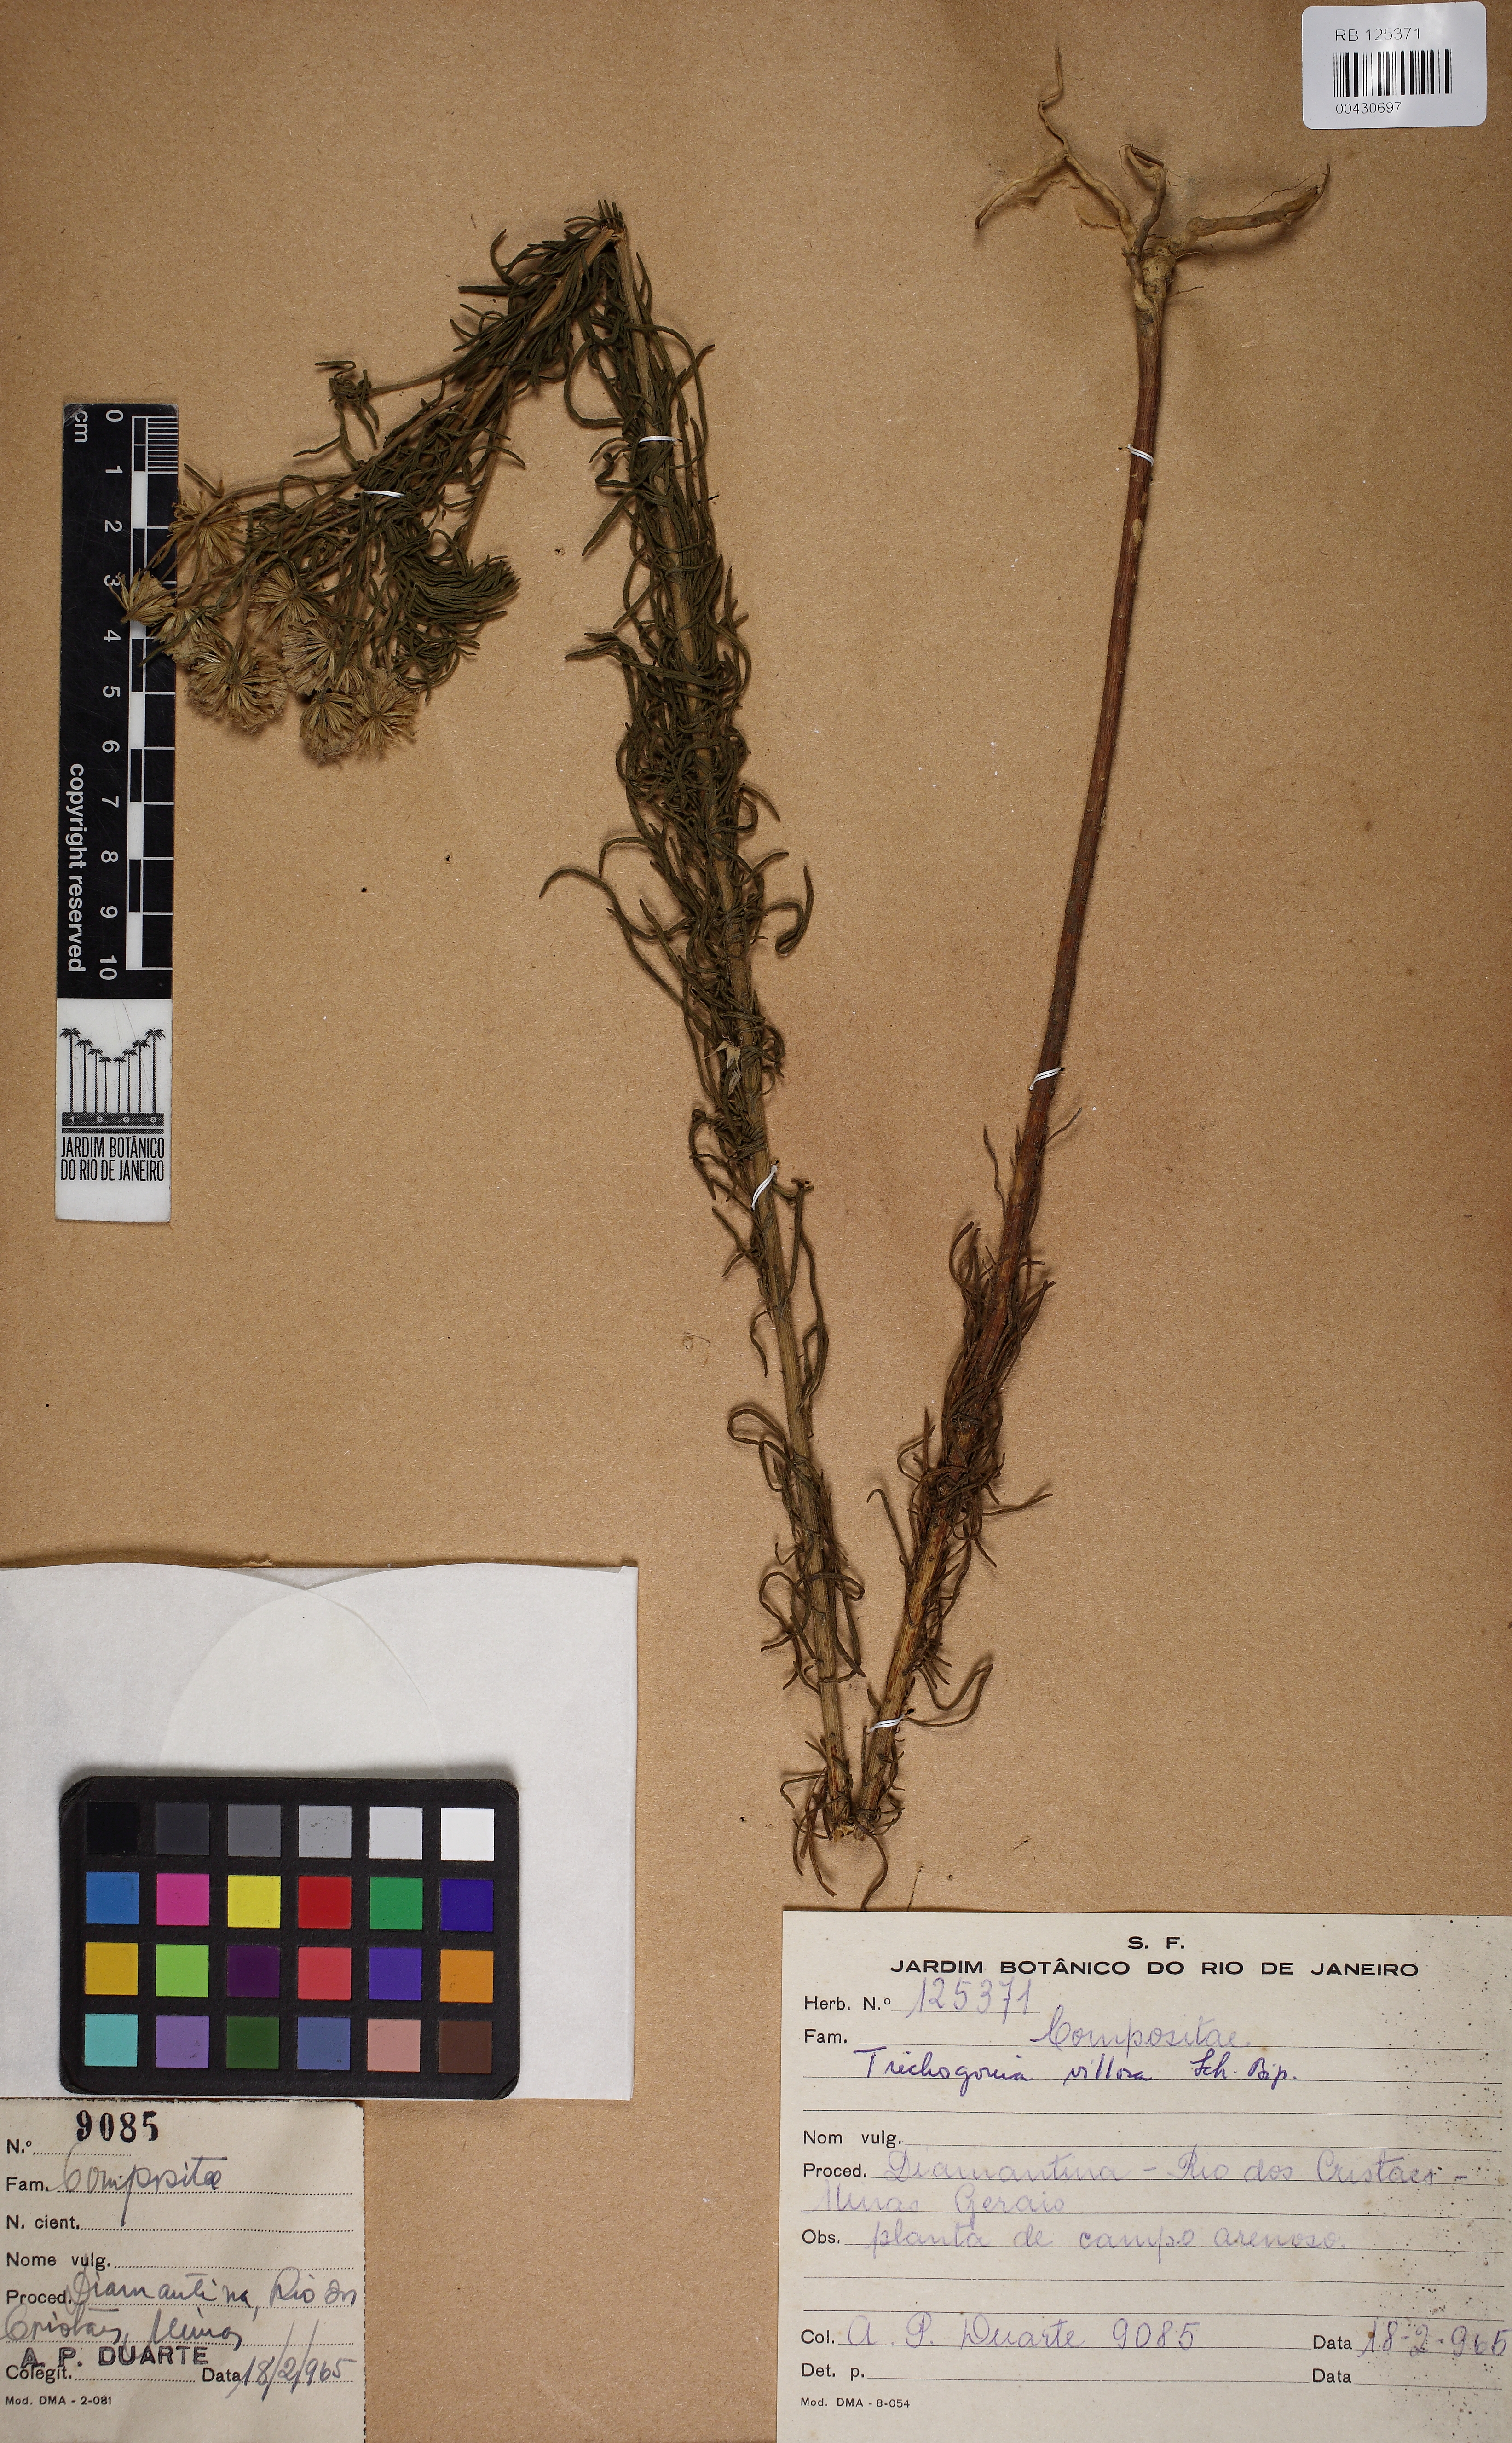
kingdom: Plantae
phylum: Tracheophyta
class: Magnoliopsida
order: Asterales
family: Asteraceae
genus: Trichogonia
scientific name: Trichogonia villosa
